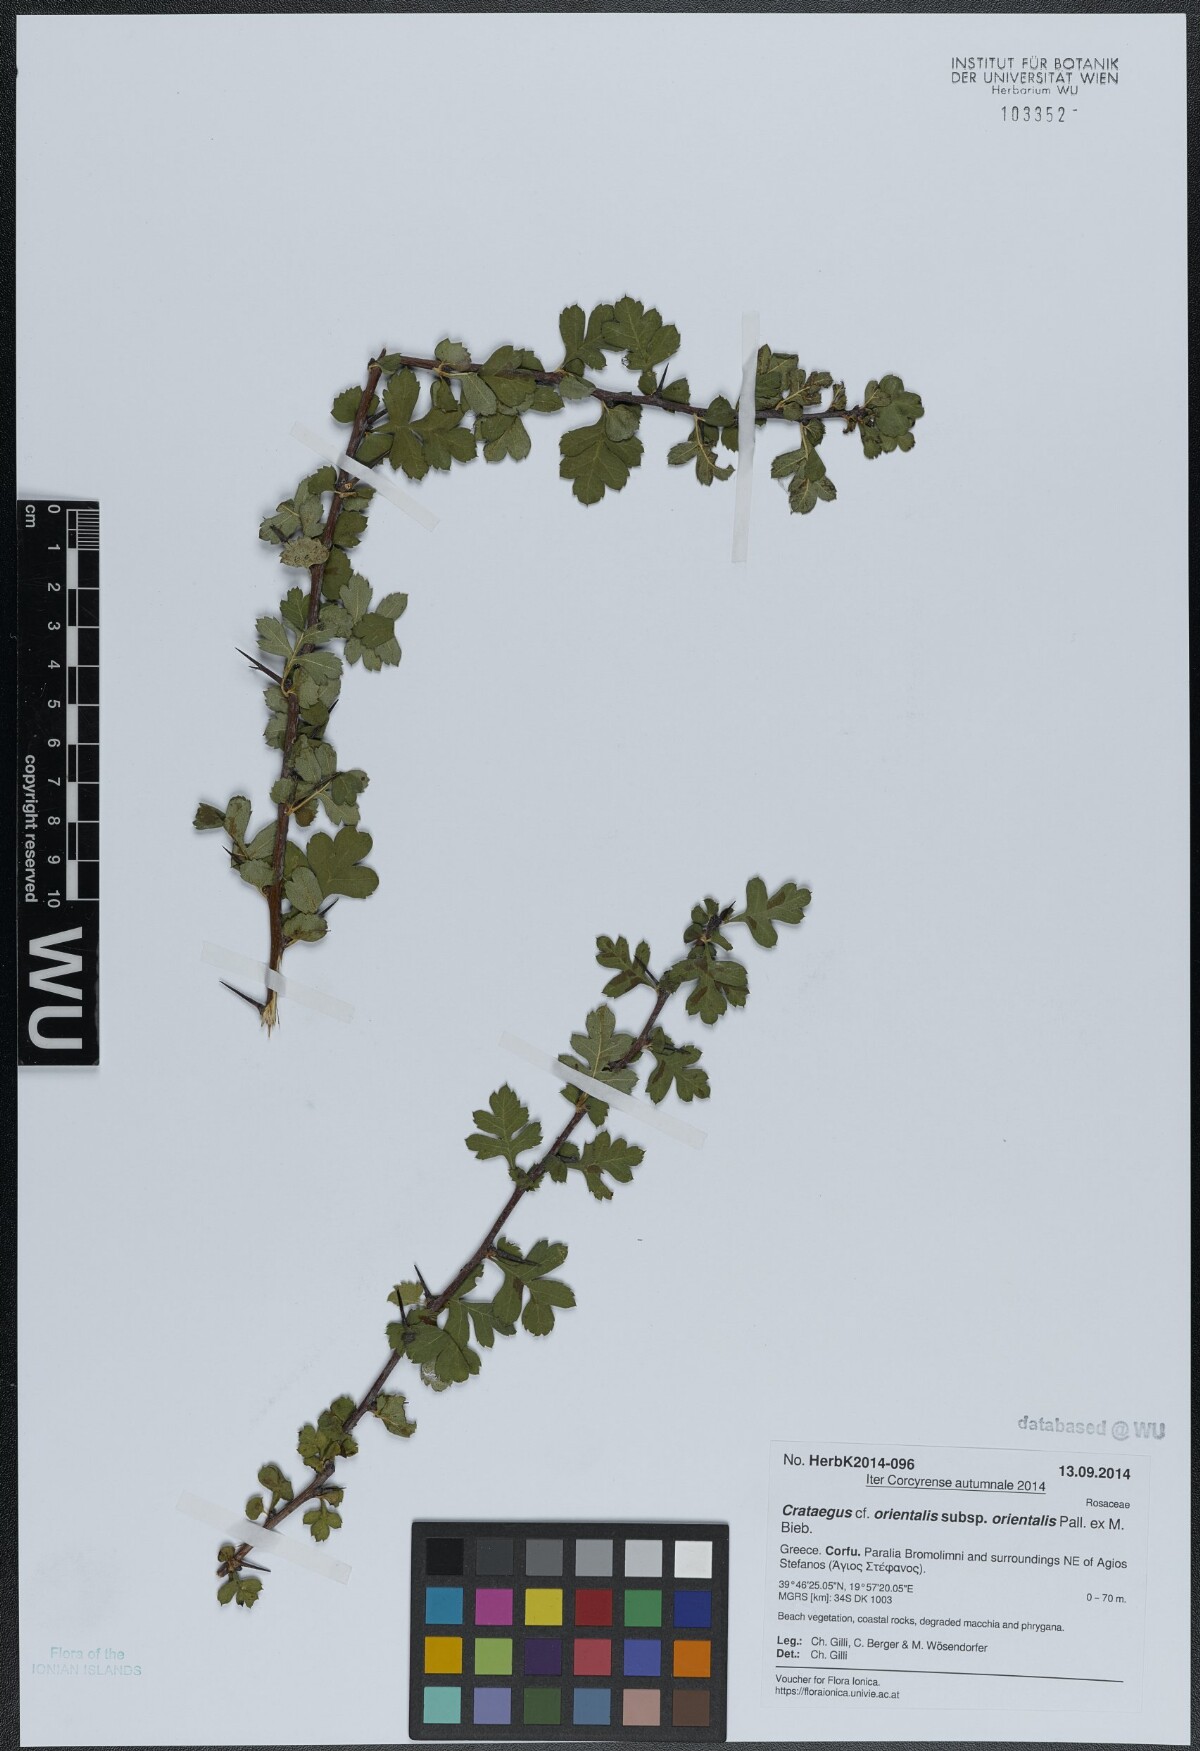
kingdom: Plantae
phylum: Tracheophyta
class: Magnoliopsida
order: Rosales
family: Rosaceae
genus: Crataegus
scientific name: Crataegus orientalis
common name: Oriental hawthorn
